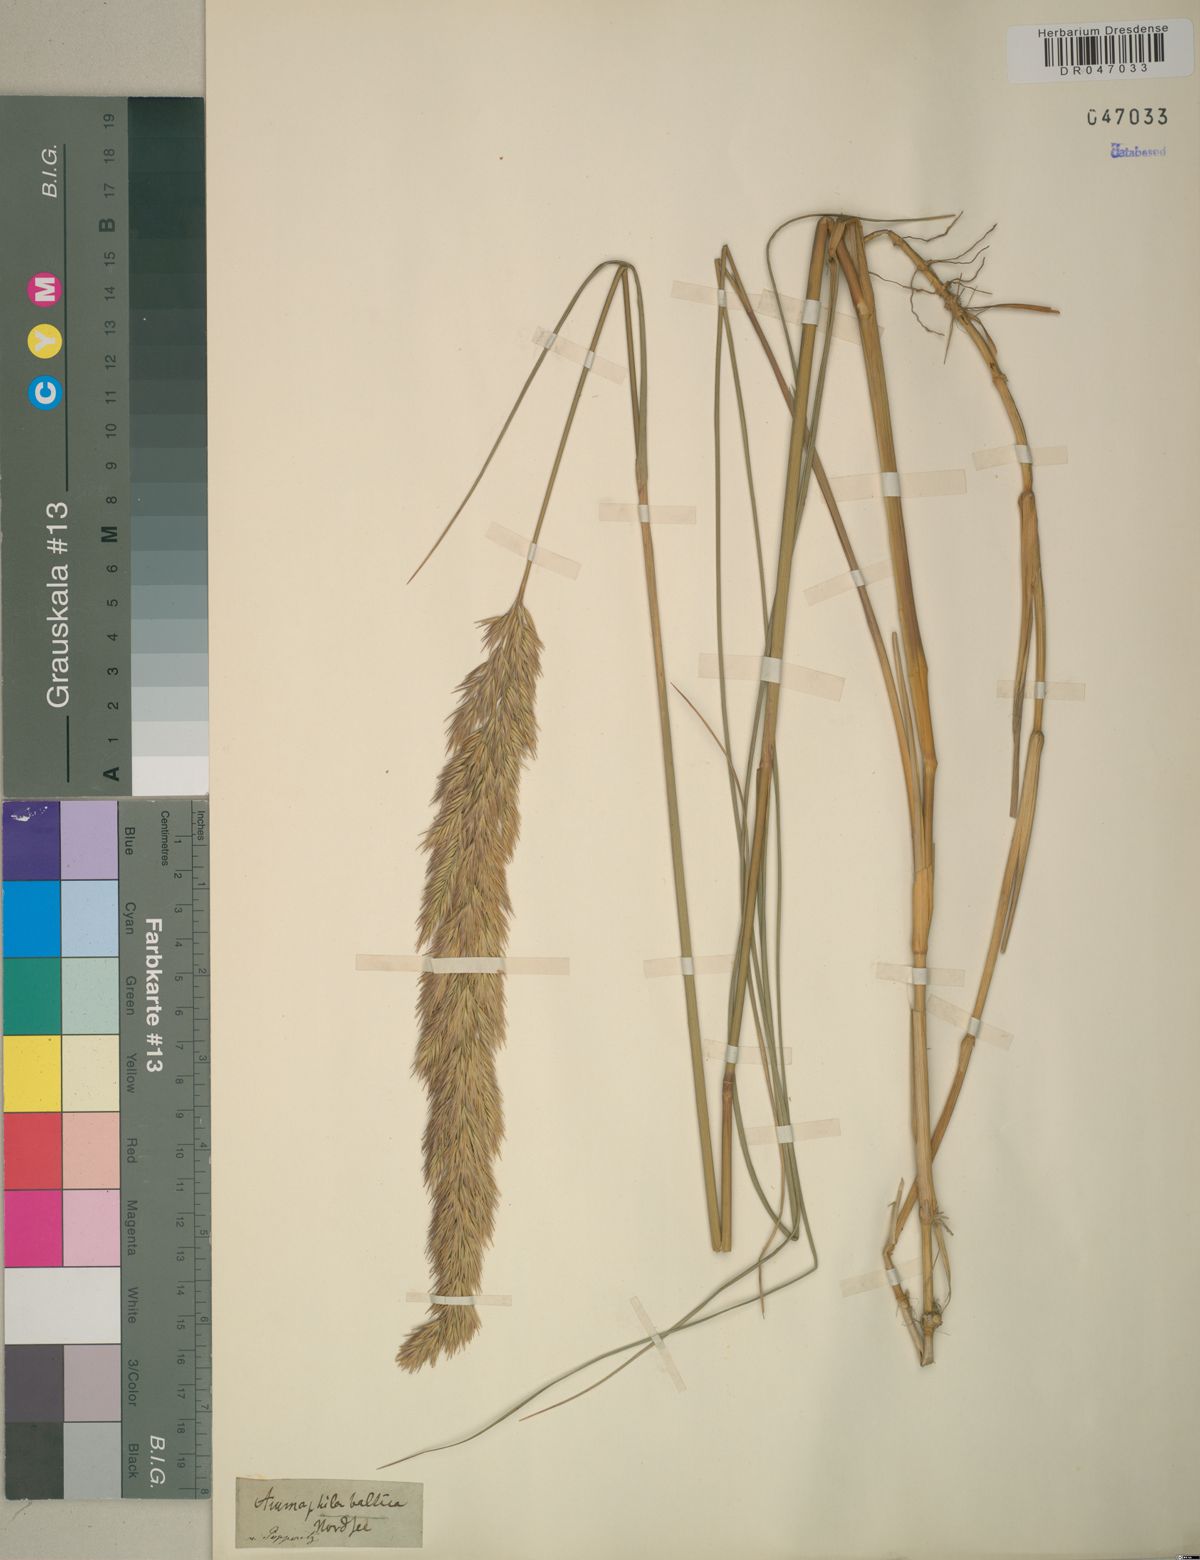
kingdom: Plantae
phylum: Tracheophyta
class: Liliopsida
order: Poales
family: Poaceae
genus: Calamagrostis
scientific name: Calamagrostis baltica
